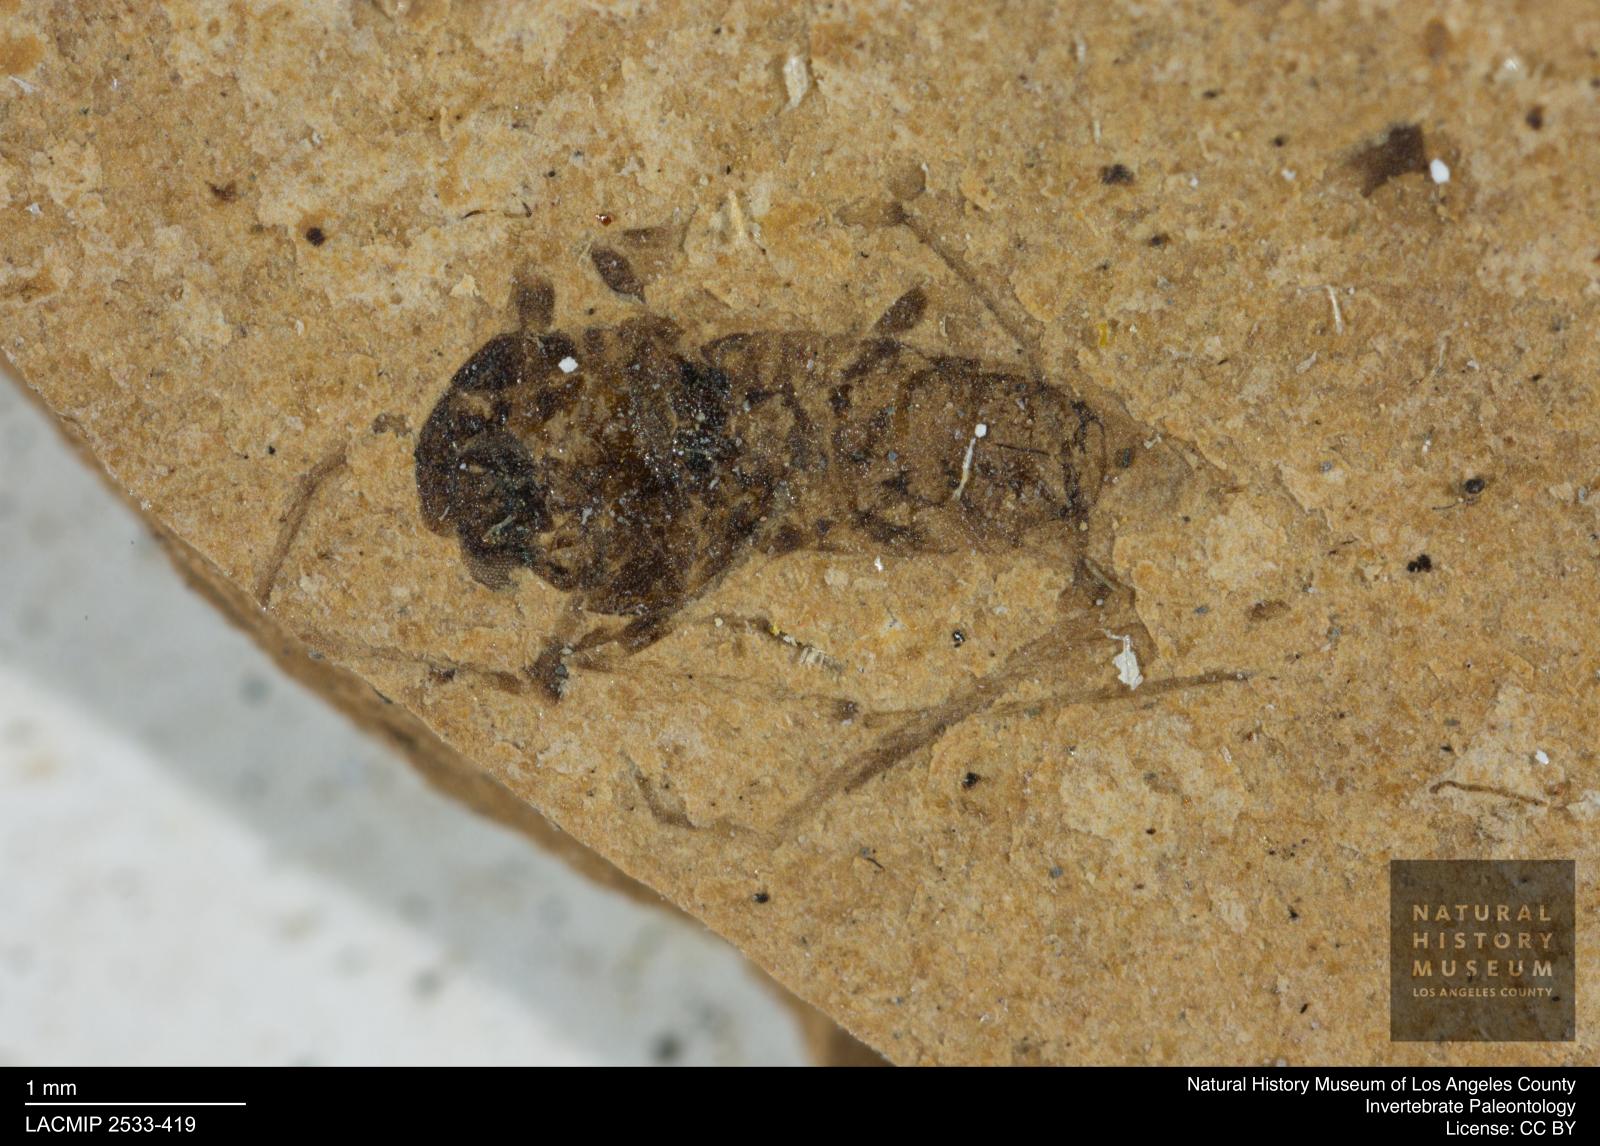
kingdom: Animalia
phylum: Arthropoda
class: Insecta
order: Diptera
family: Chironomidae
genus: Tanypus
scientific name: Tanypus fuscus
